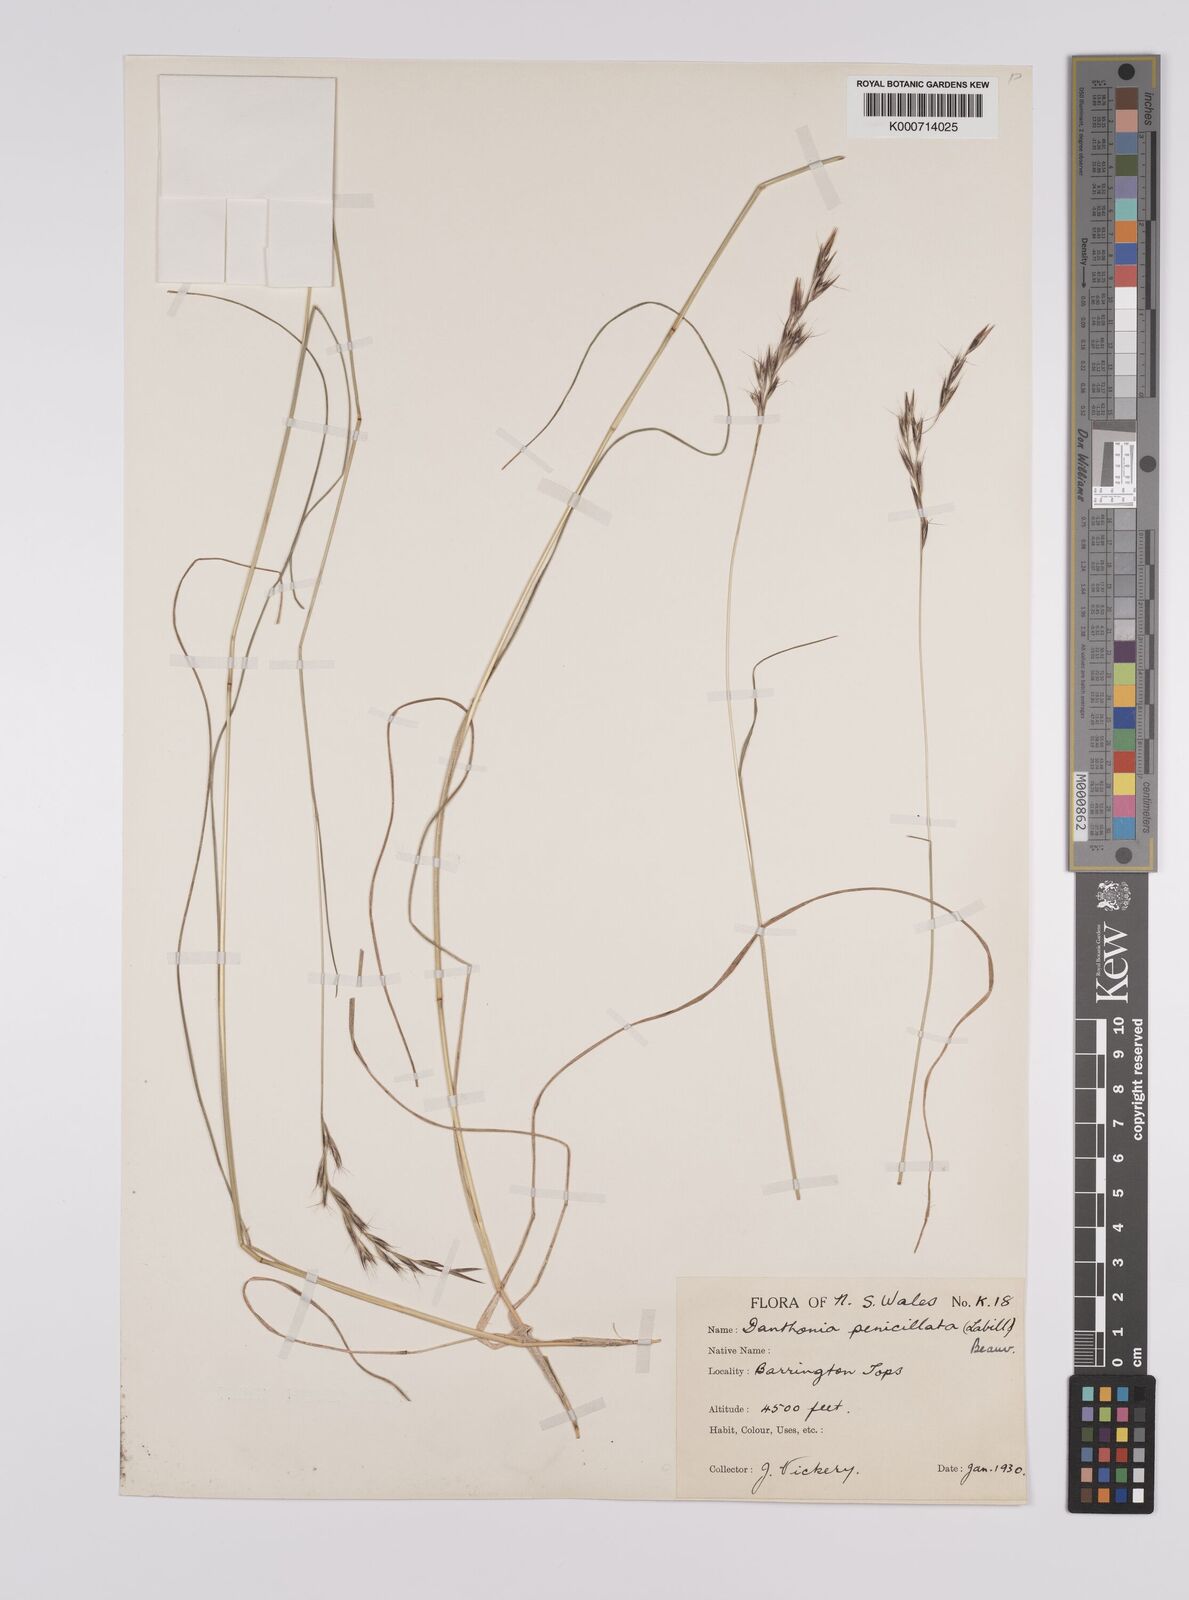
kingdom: Plantae
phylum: Tracheophyta
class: Liliopsida
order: Poales
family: Poaceae
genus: Rytidosperma
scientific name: Rytidosperma penicillatum
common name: Hairy wallaby grass
